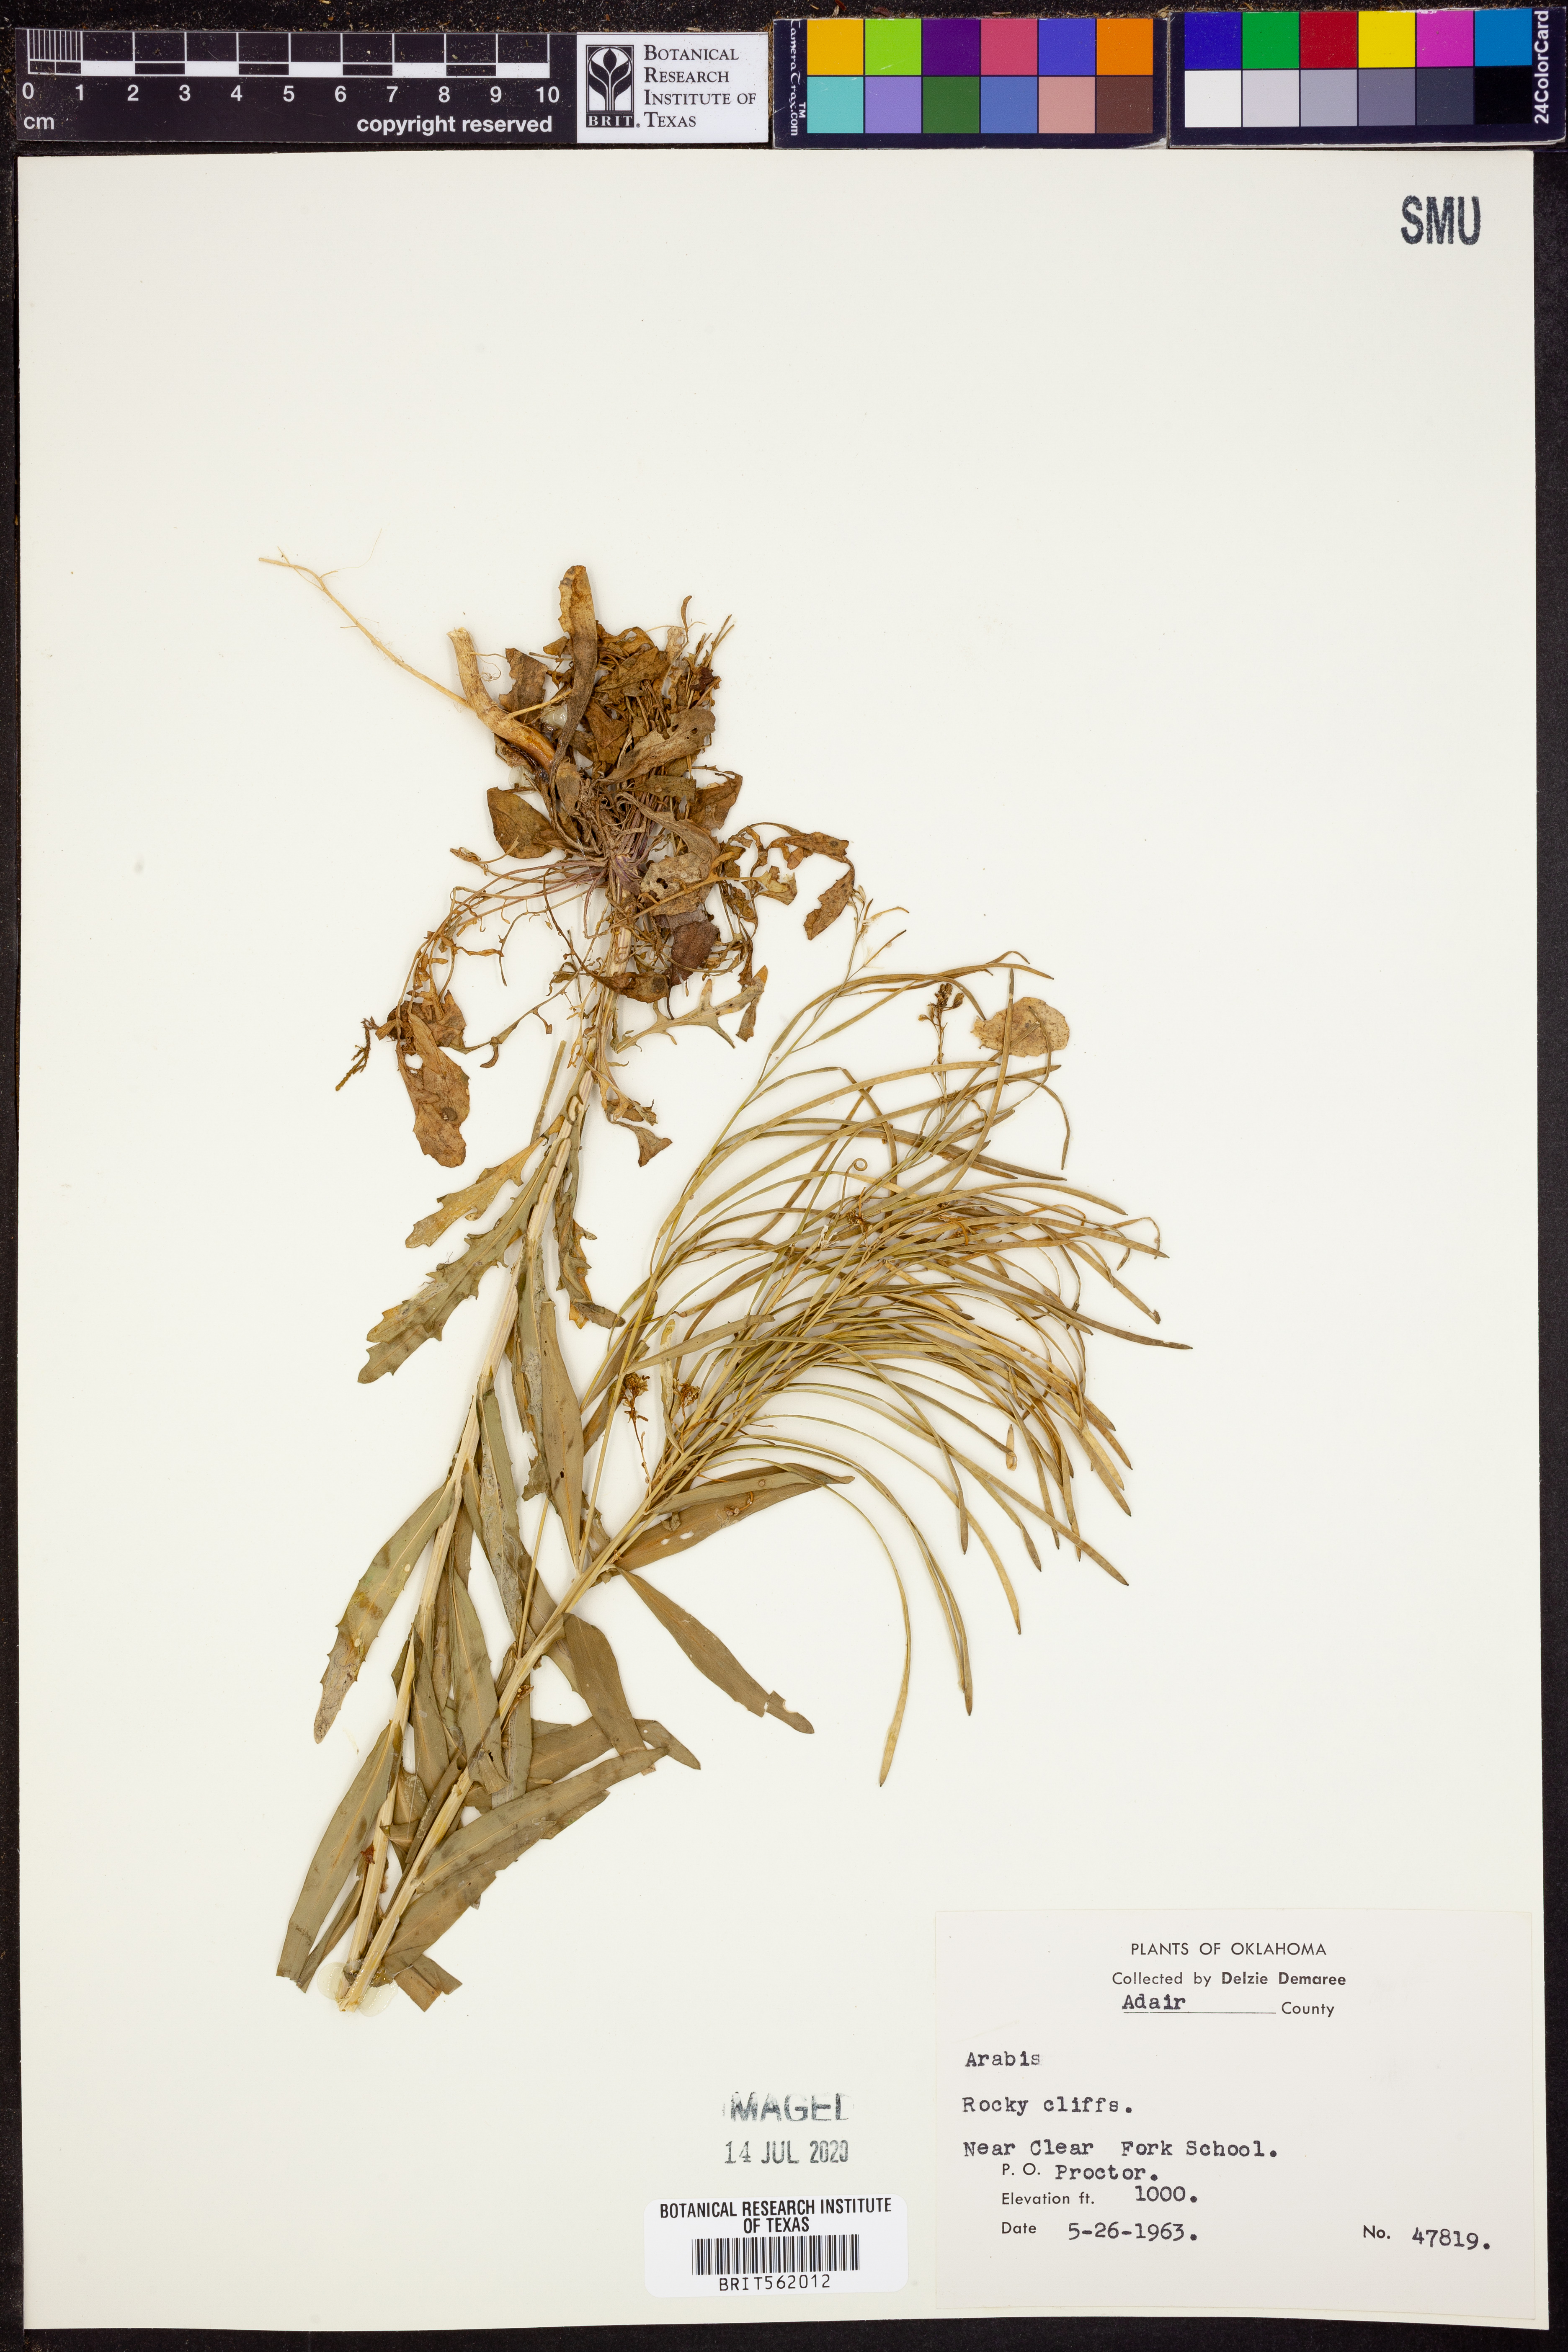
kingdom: Plantae
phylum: Tracheophyta
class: Magnoliopsida
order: Brassicales
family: Brassicaceae
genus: Arabis
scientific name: Arabis
